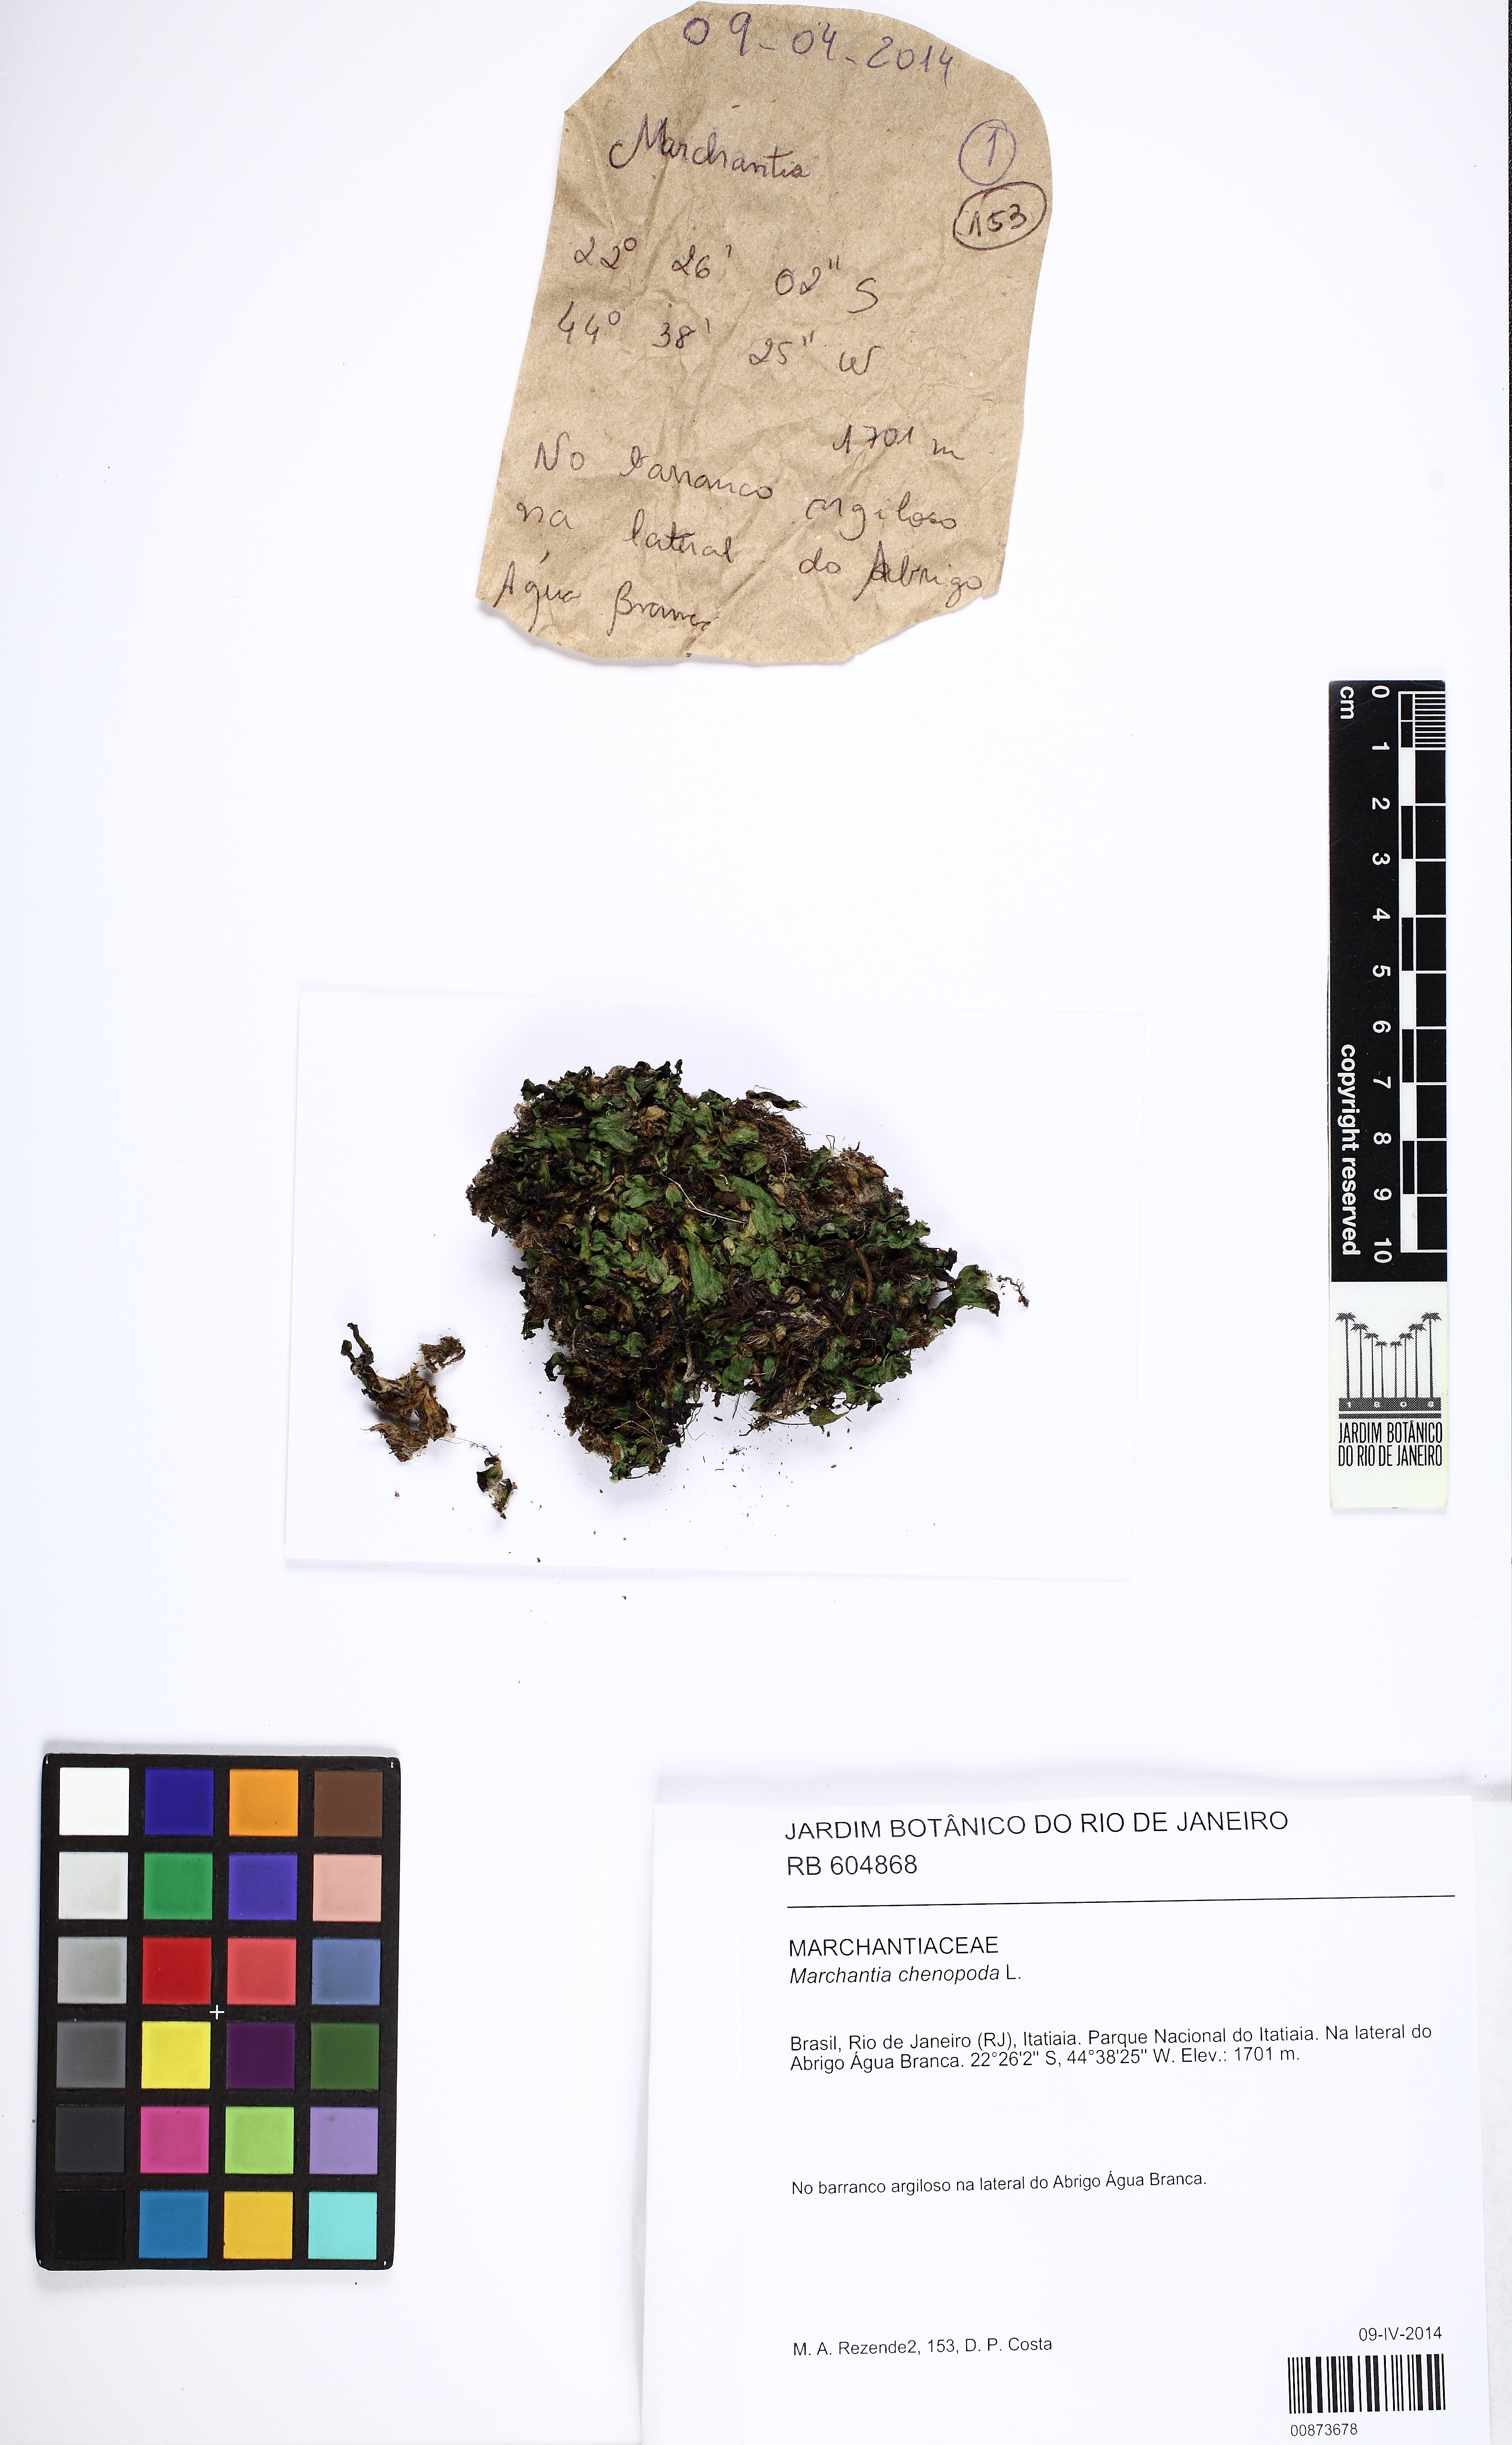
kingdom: Plantae
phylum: Marchantiophyta
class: Marchantiopsida
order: Marchantiales
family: Marchantiaceae
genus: Marchantia
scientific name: Marchantia chenopoda
